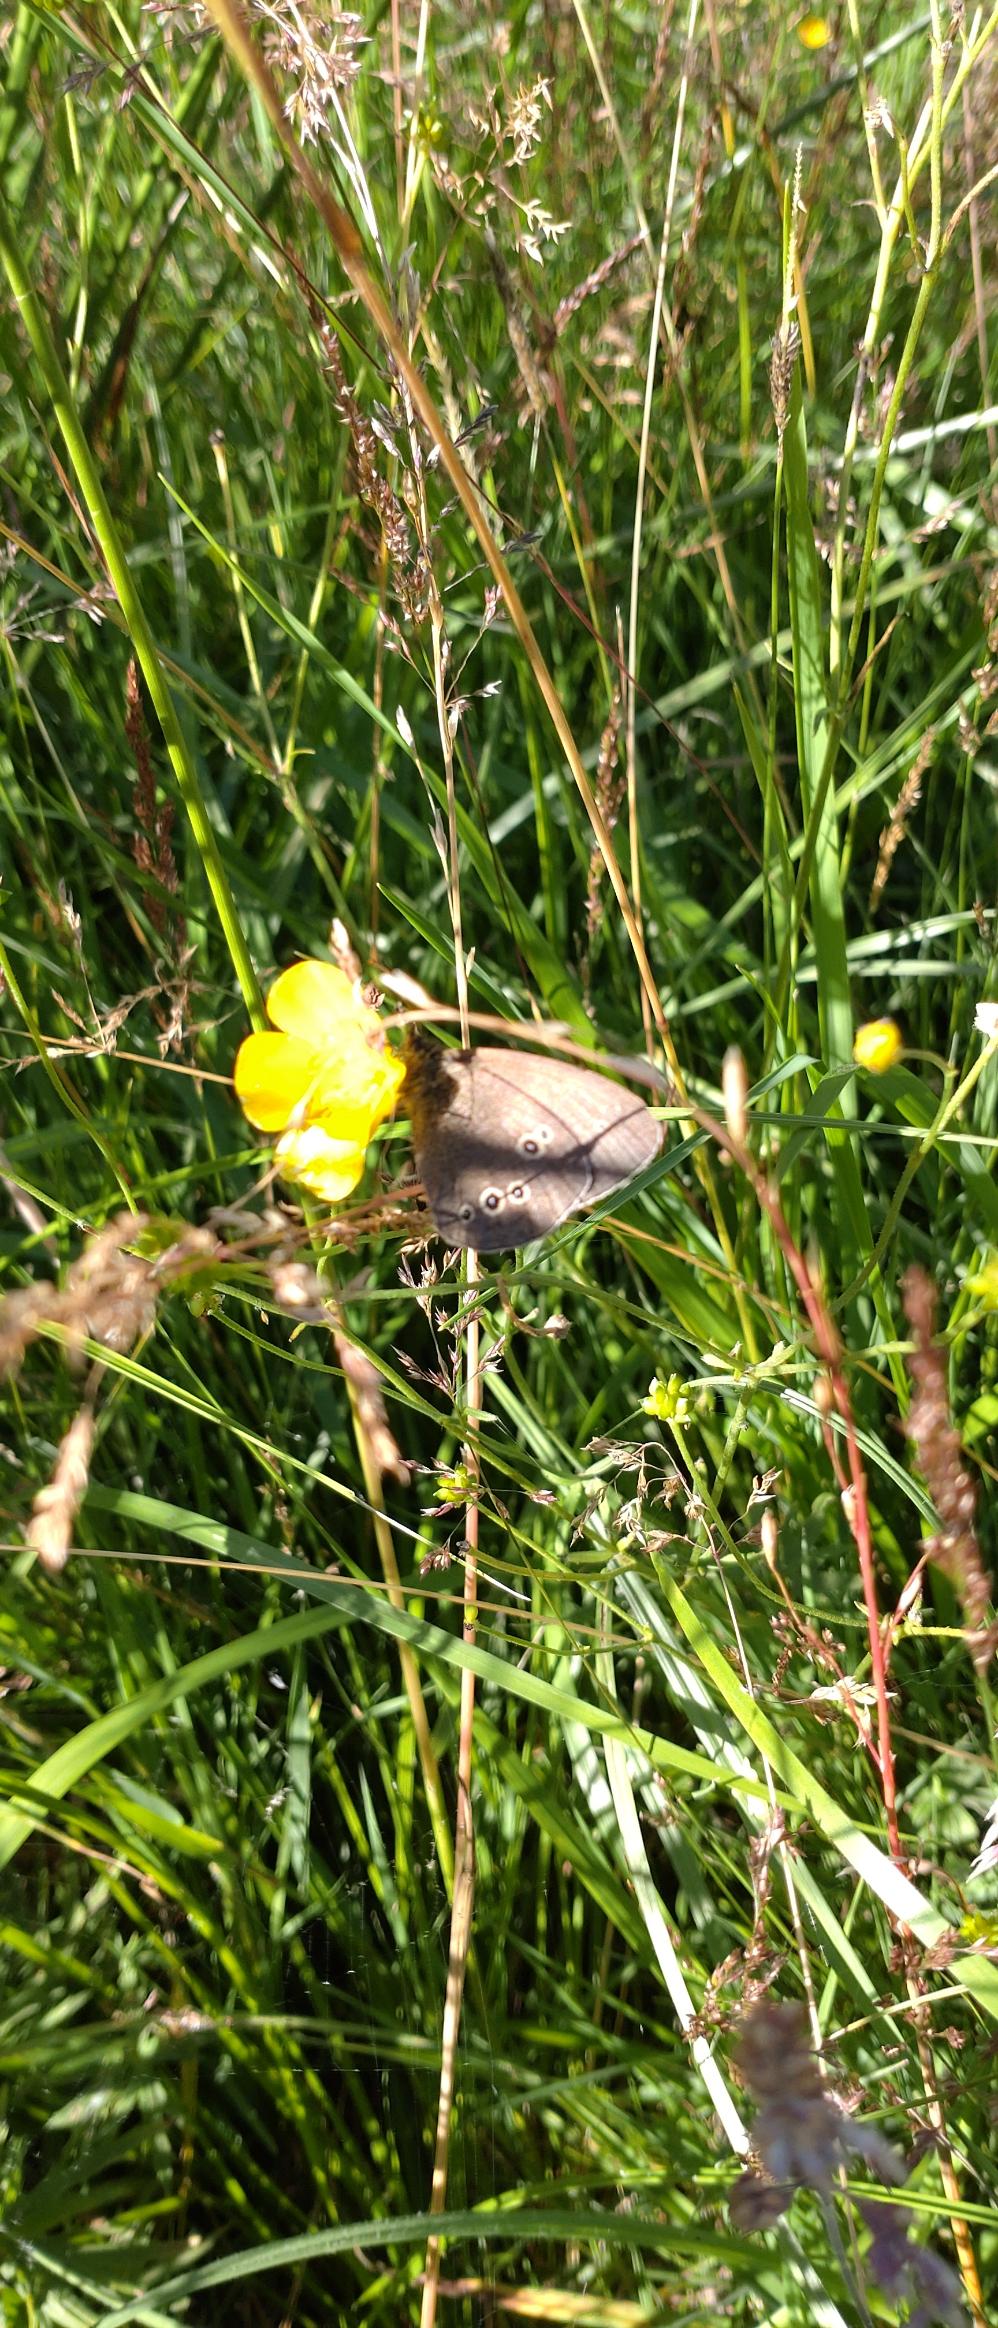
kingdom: Animalia
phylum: Arthropoda
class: Insecta
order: Lepidoptera
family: Nymphalidae
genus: Aphantopus
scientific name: Aphantopus hyperantus
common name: Engrandøje
